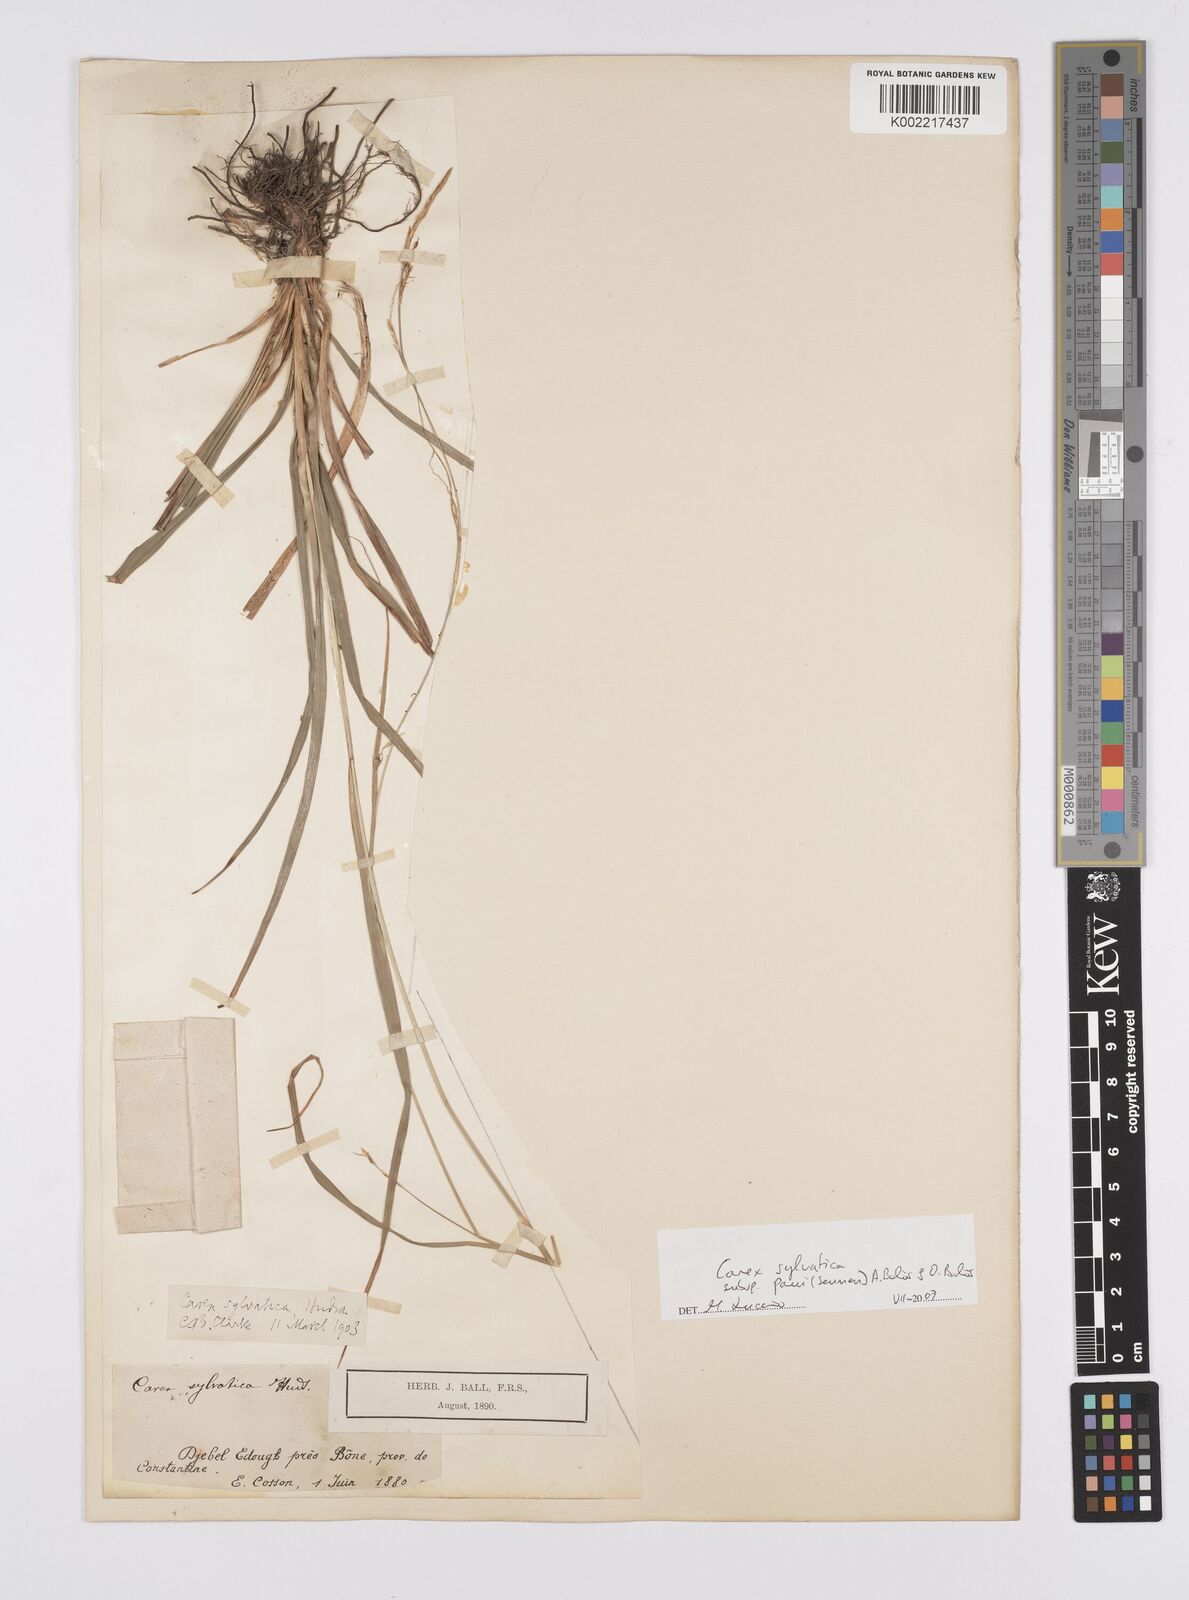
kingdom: Plantae
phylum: Tracheophyta
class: Liliopsida
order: Poales
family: Cyperaceae
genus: Carex
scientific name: Carex sylvatica
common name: Wood-sedge
